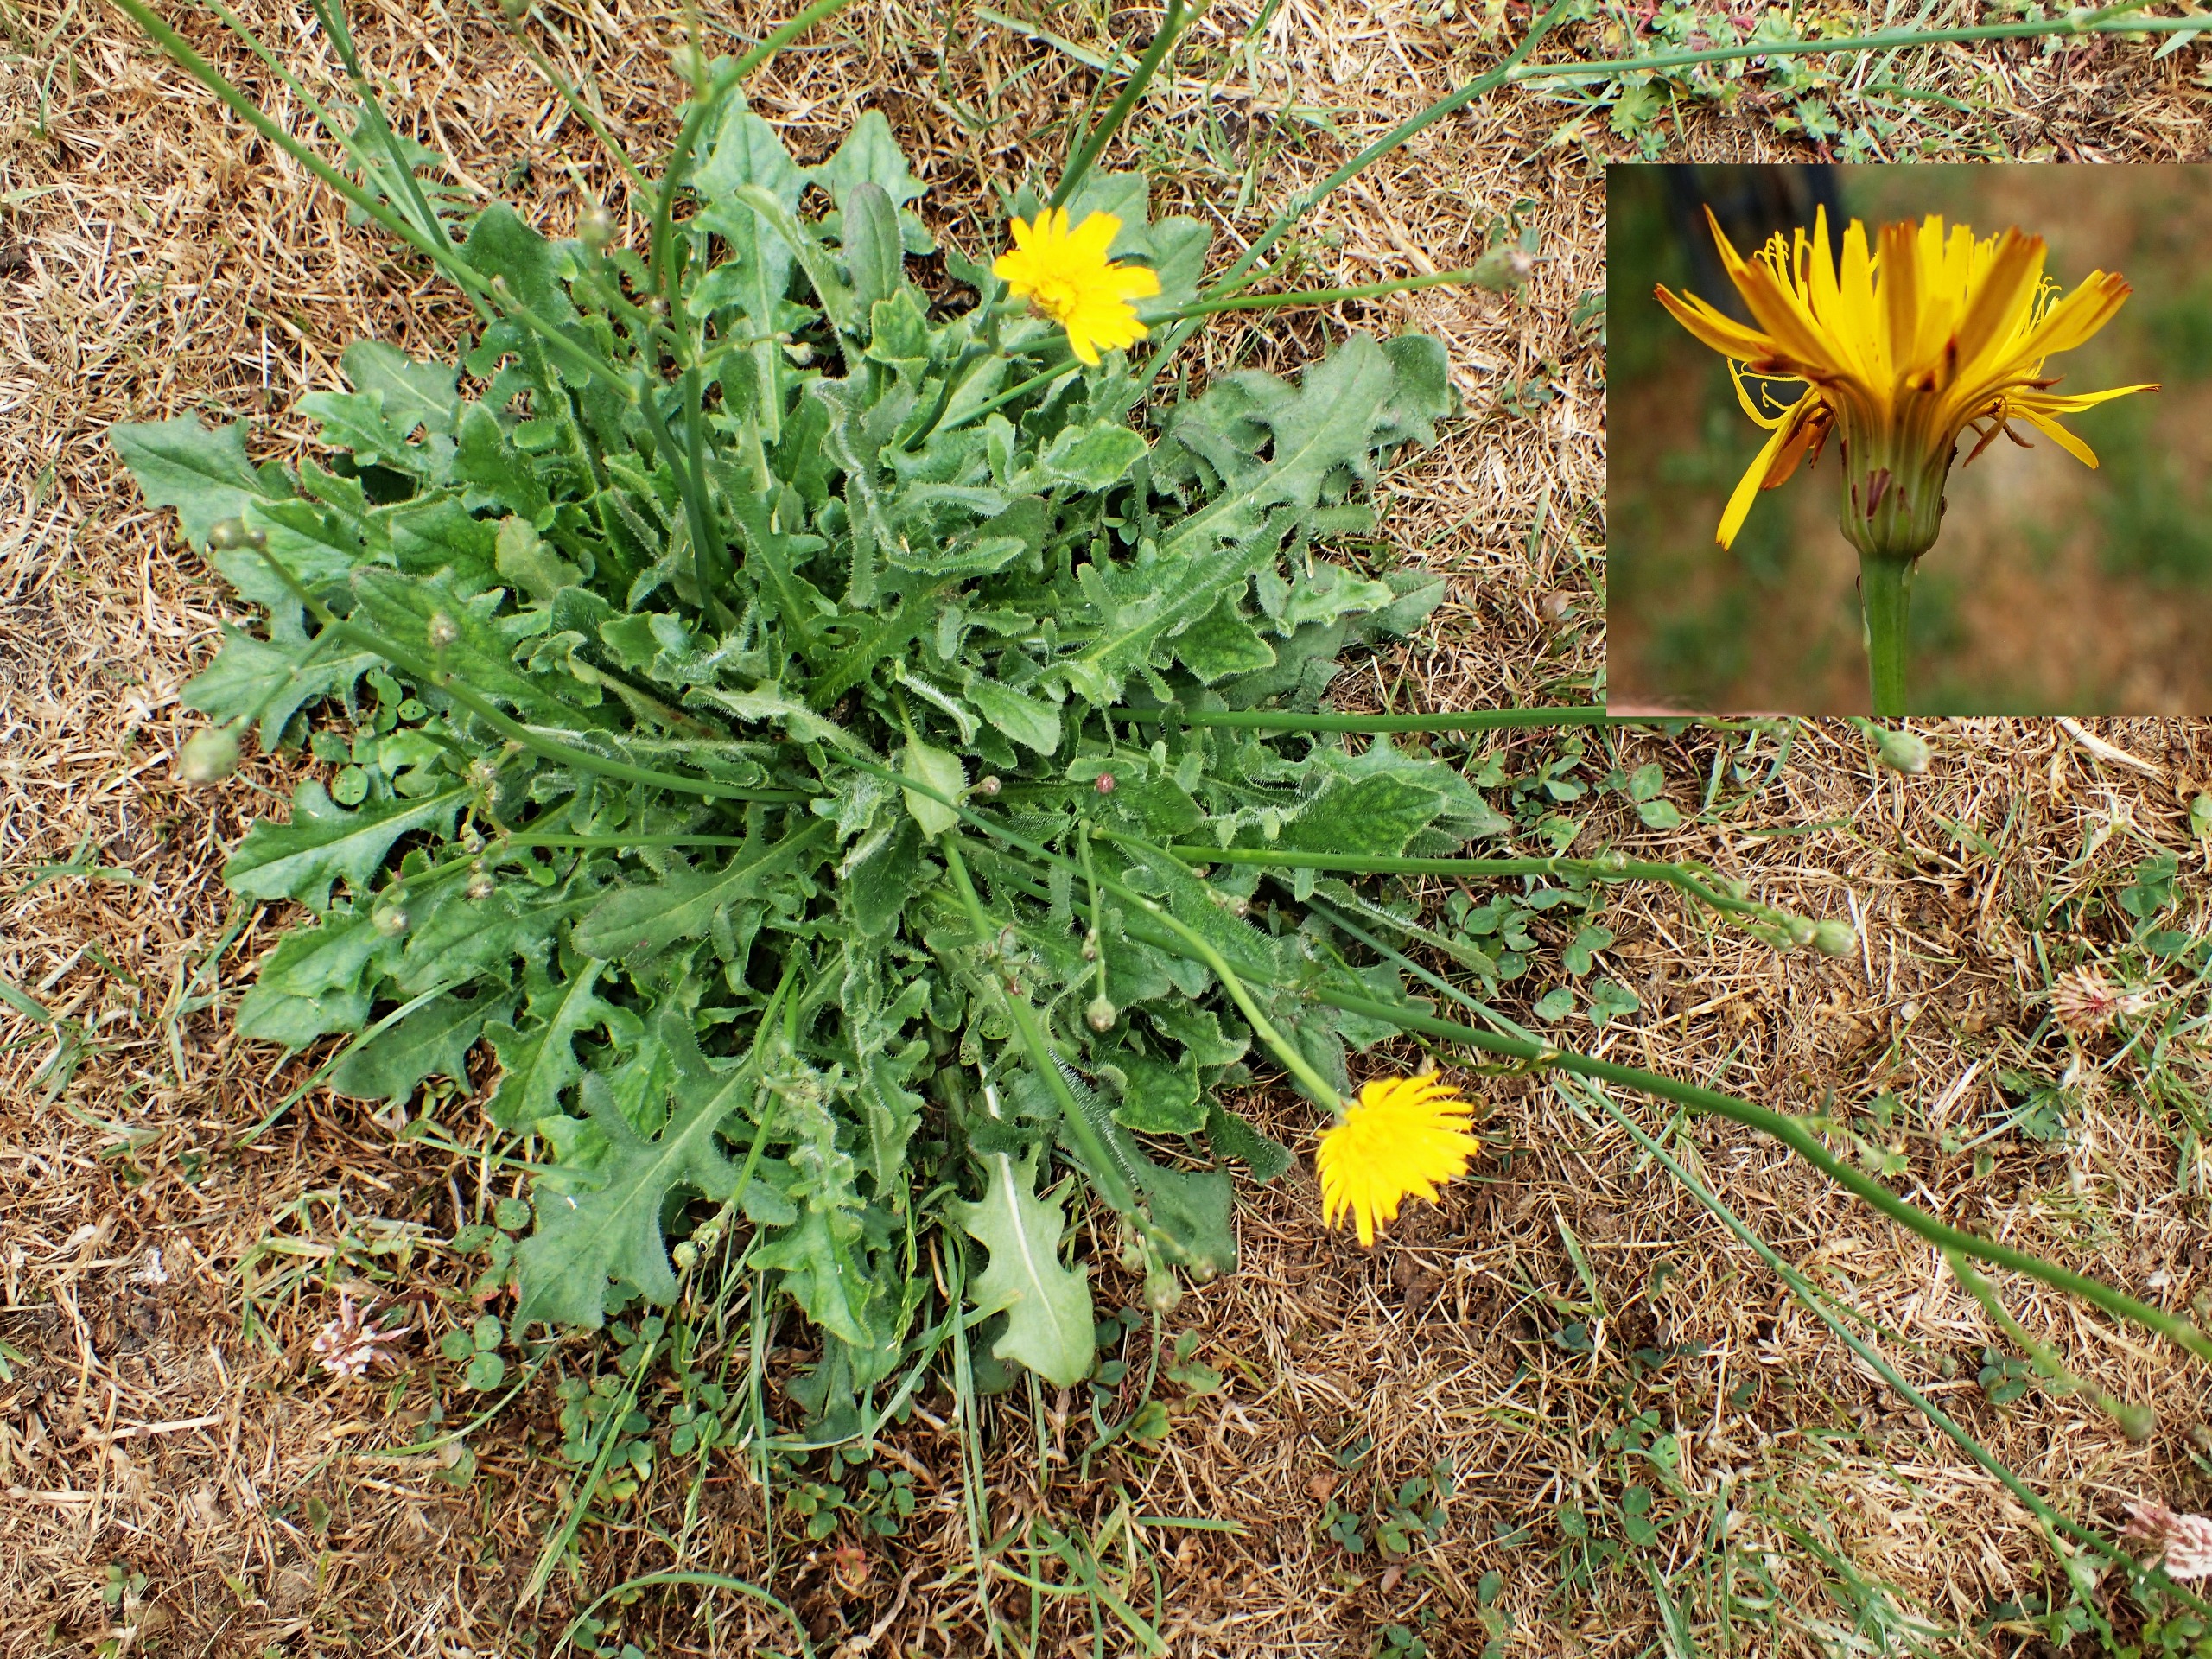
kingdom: Plantae
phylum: Tracheophyta
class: Magnoliopsida
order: Asterales
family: Asteraceae
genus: Hypochaeris
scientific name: Hypochaeris radicata
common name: Almindelig kongepen
